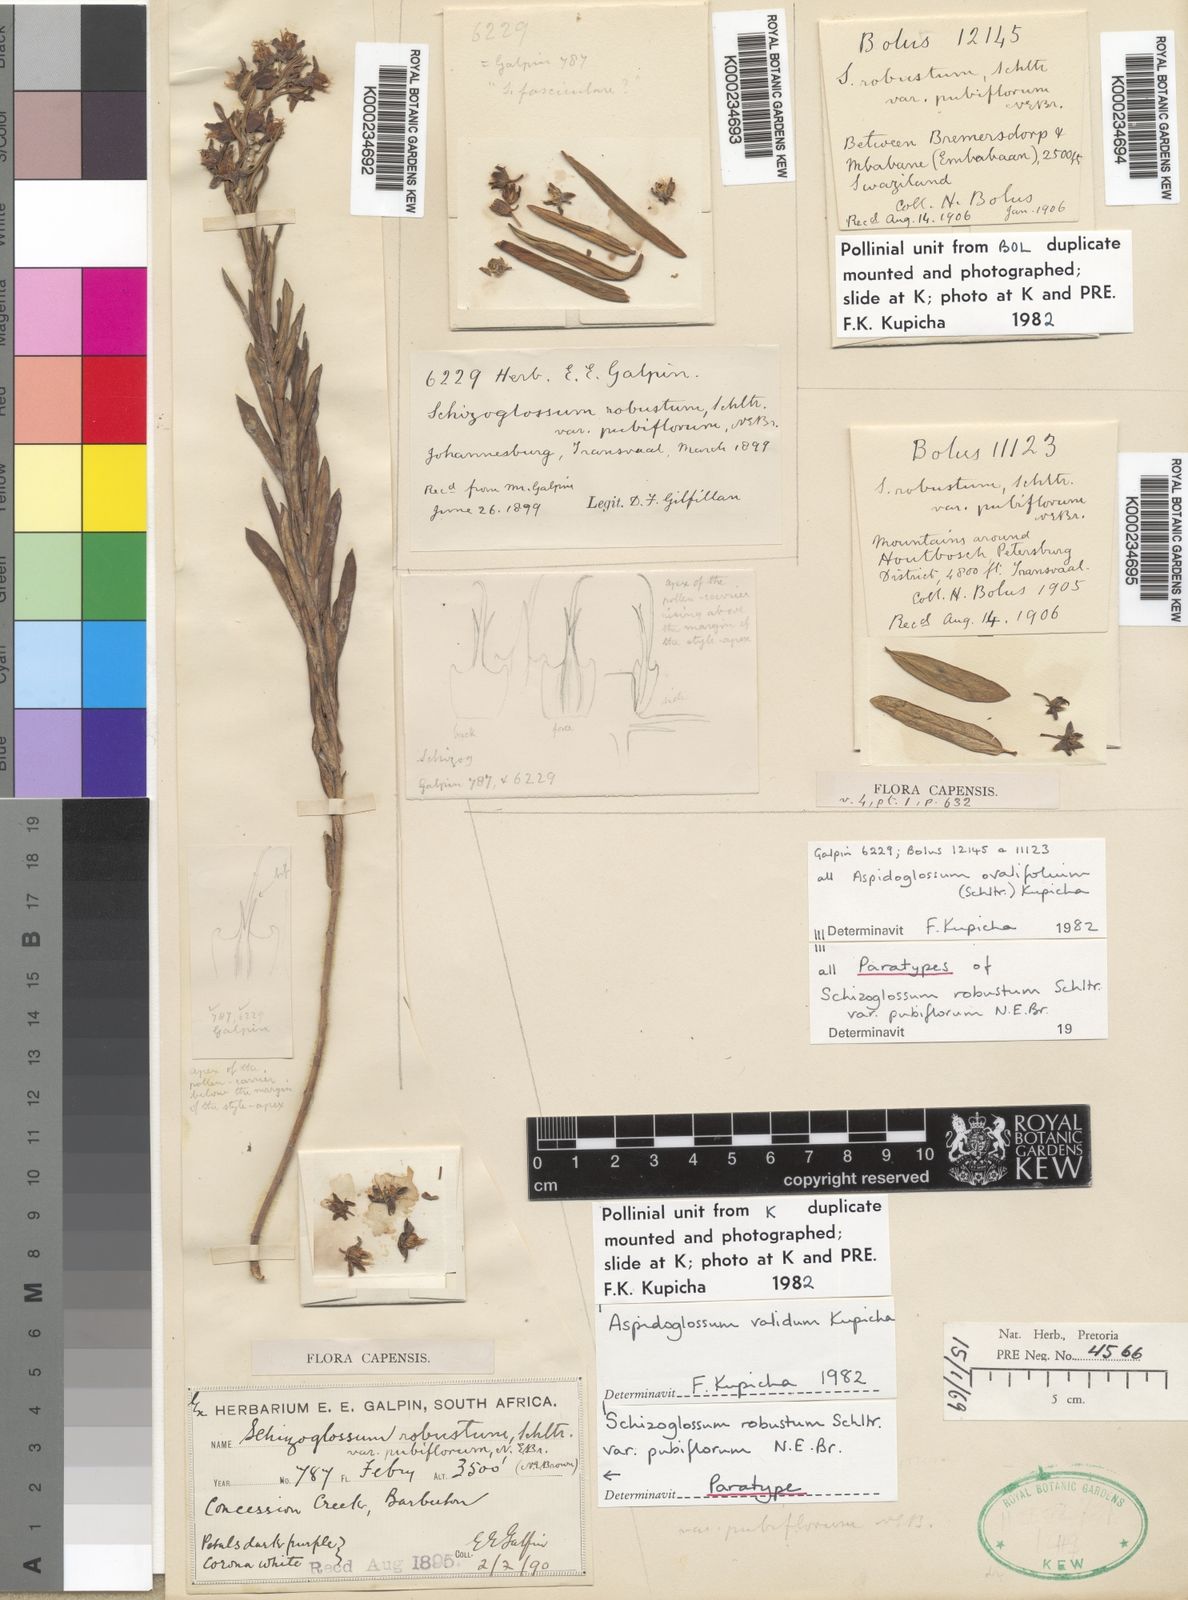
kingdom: Plantae
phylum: Tracheophyta
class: Magnoliopsida
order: Gentianales
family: Apocynaceae
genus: Aspidoglossum
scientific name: Aspidoglossum validum
